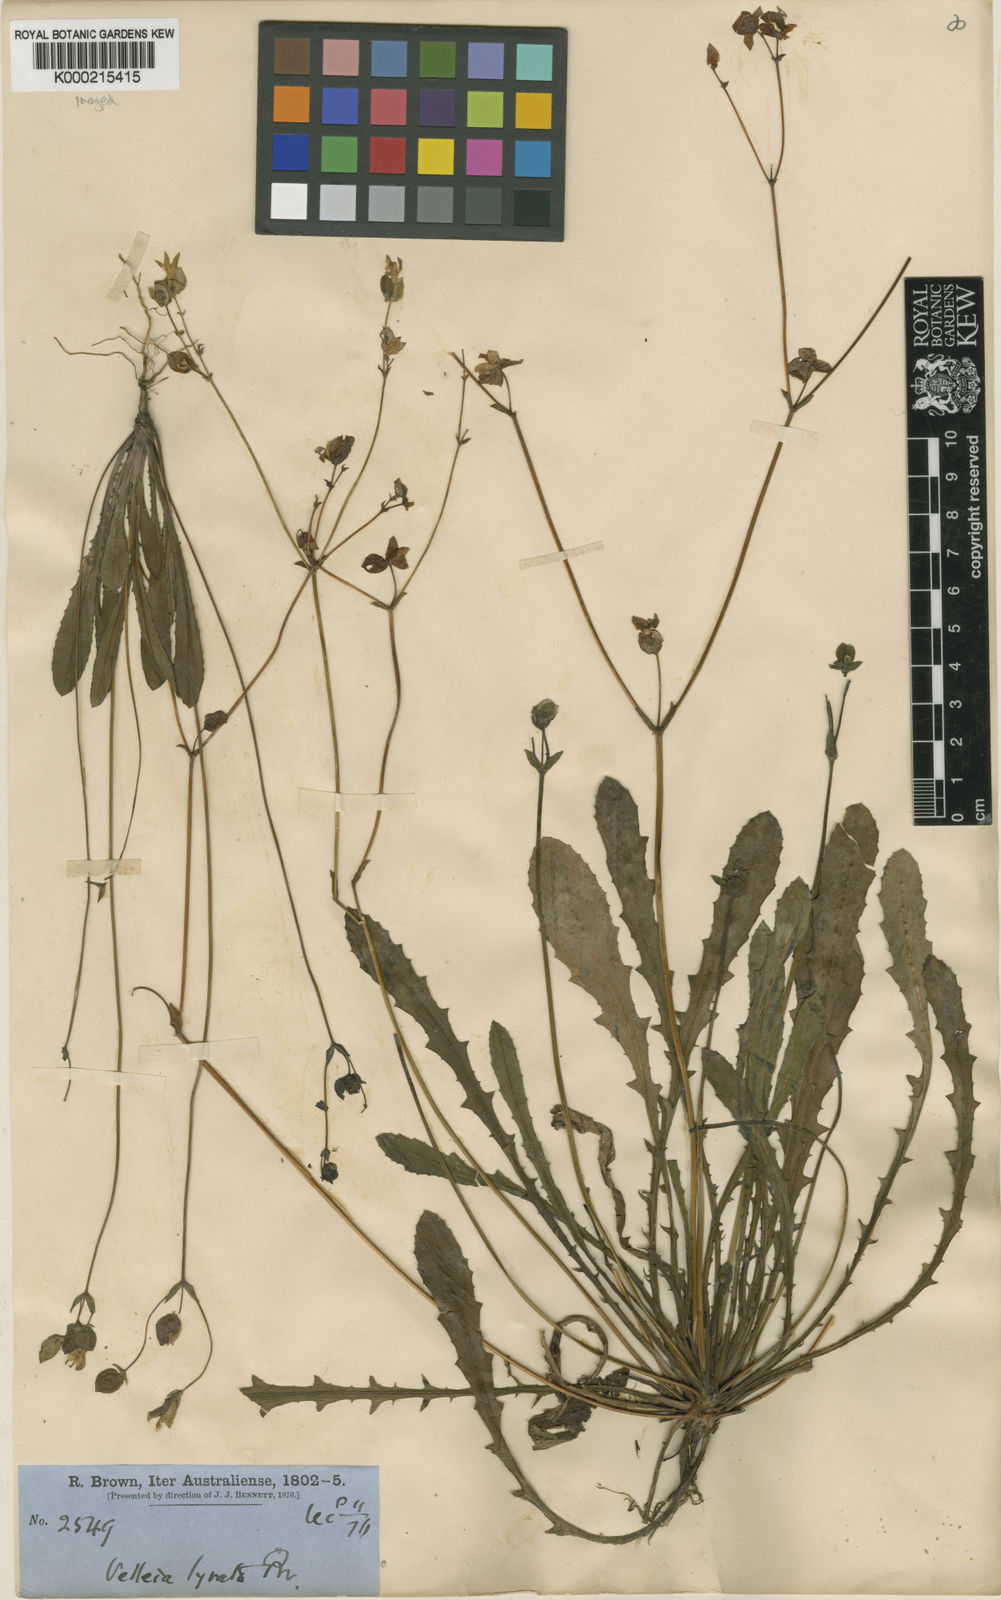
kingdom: Plantae
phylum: Tracheophyta
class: Magnoliopsida
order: Asterales
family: Goodeniaceae
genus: Goodenia
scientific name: Goodenia caroliniana
